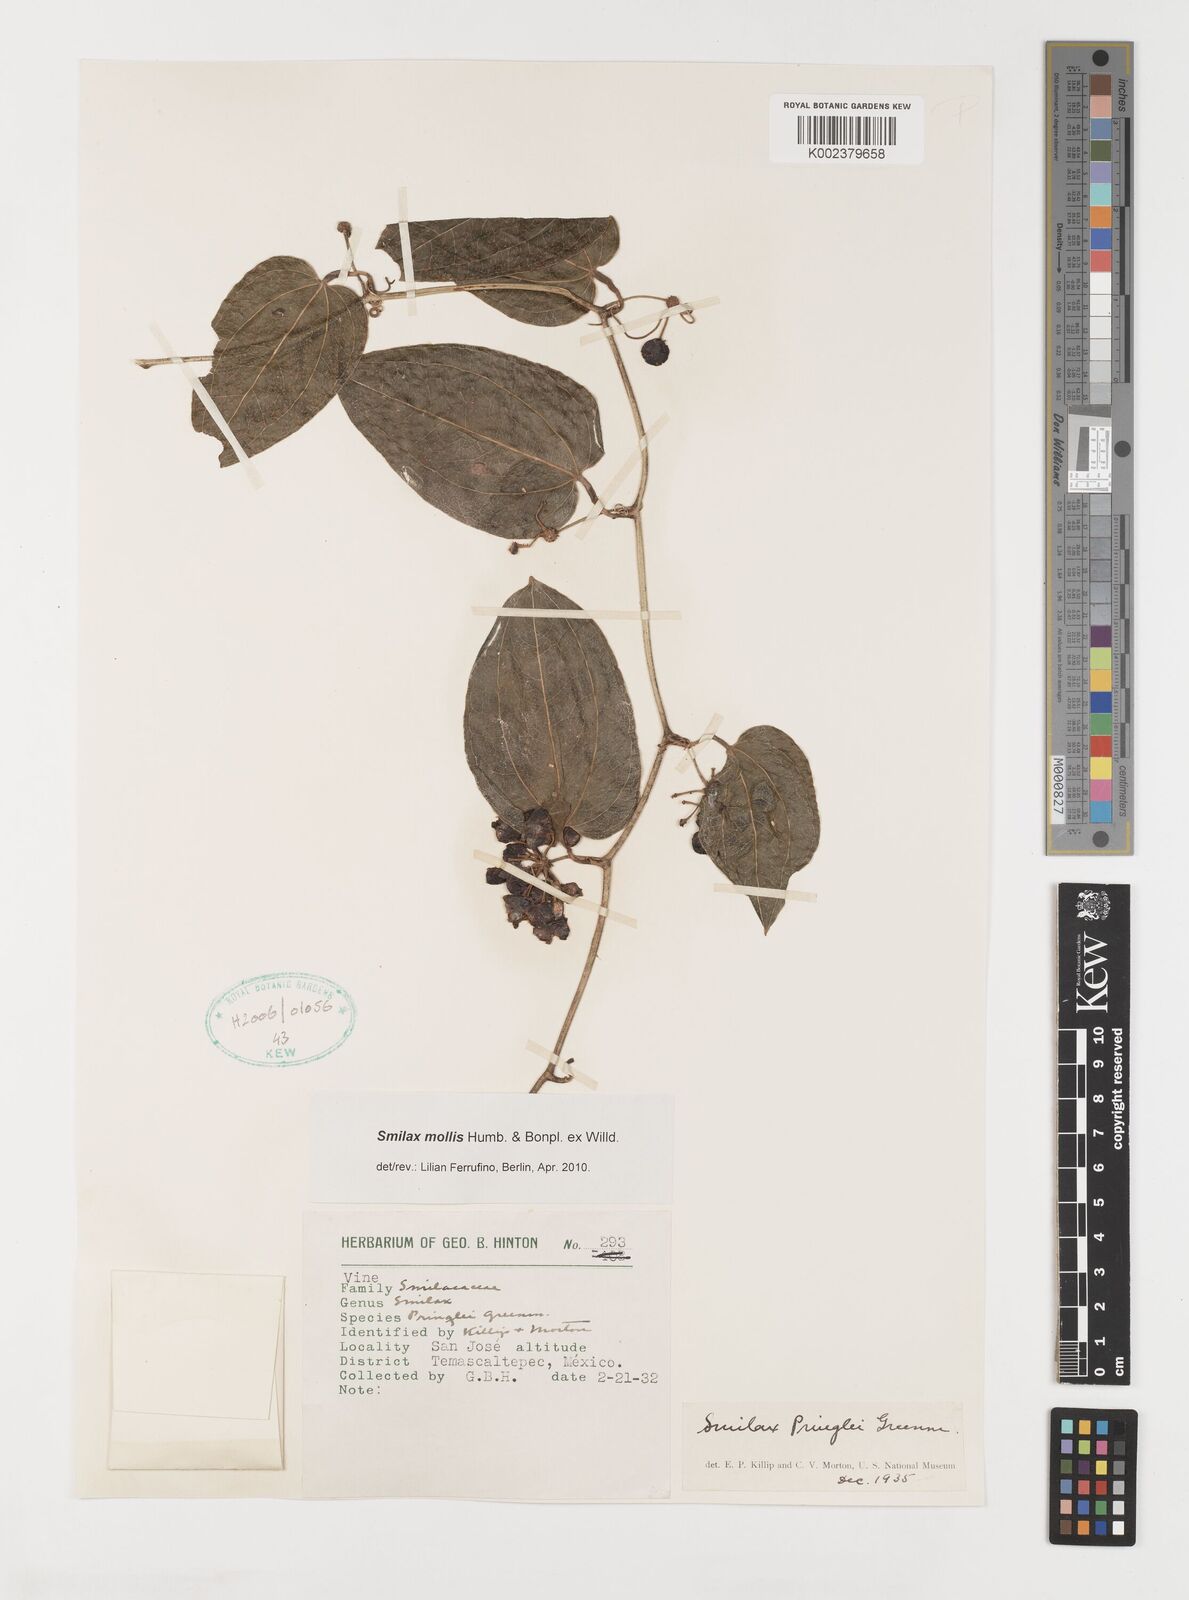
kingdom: Plantae
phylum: Tracheophyta
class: Liliopsida
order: Liliales
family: Smilacaceae
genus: Smilax
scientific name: Smilax mollis
